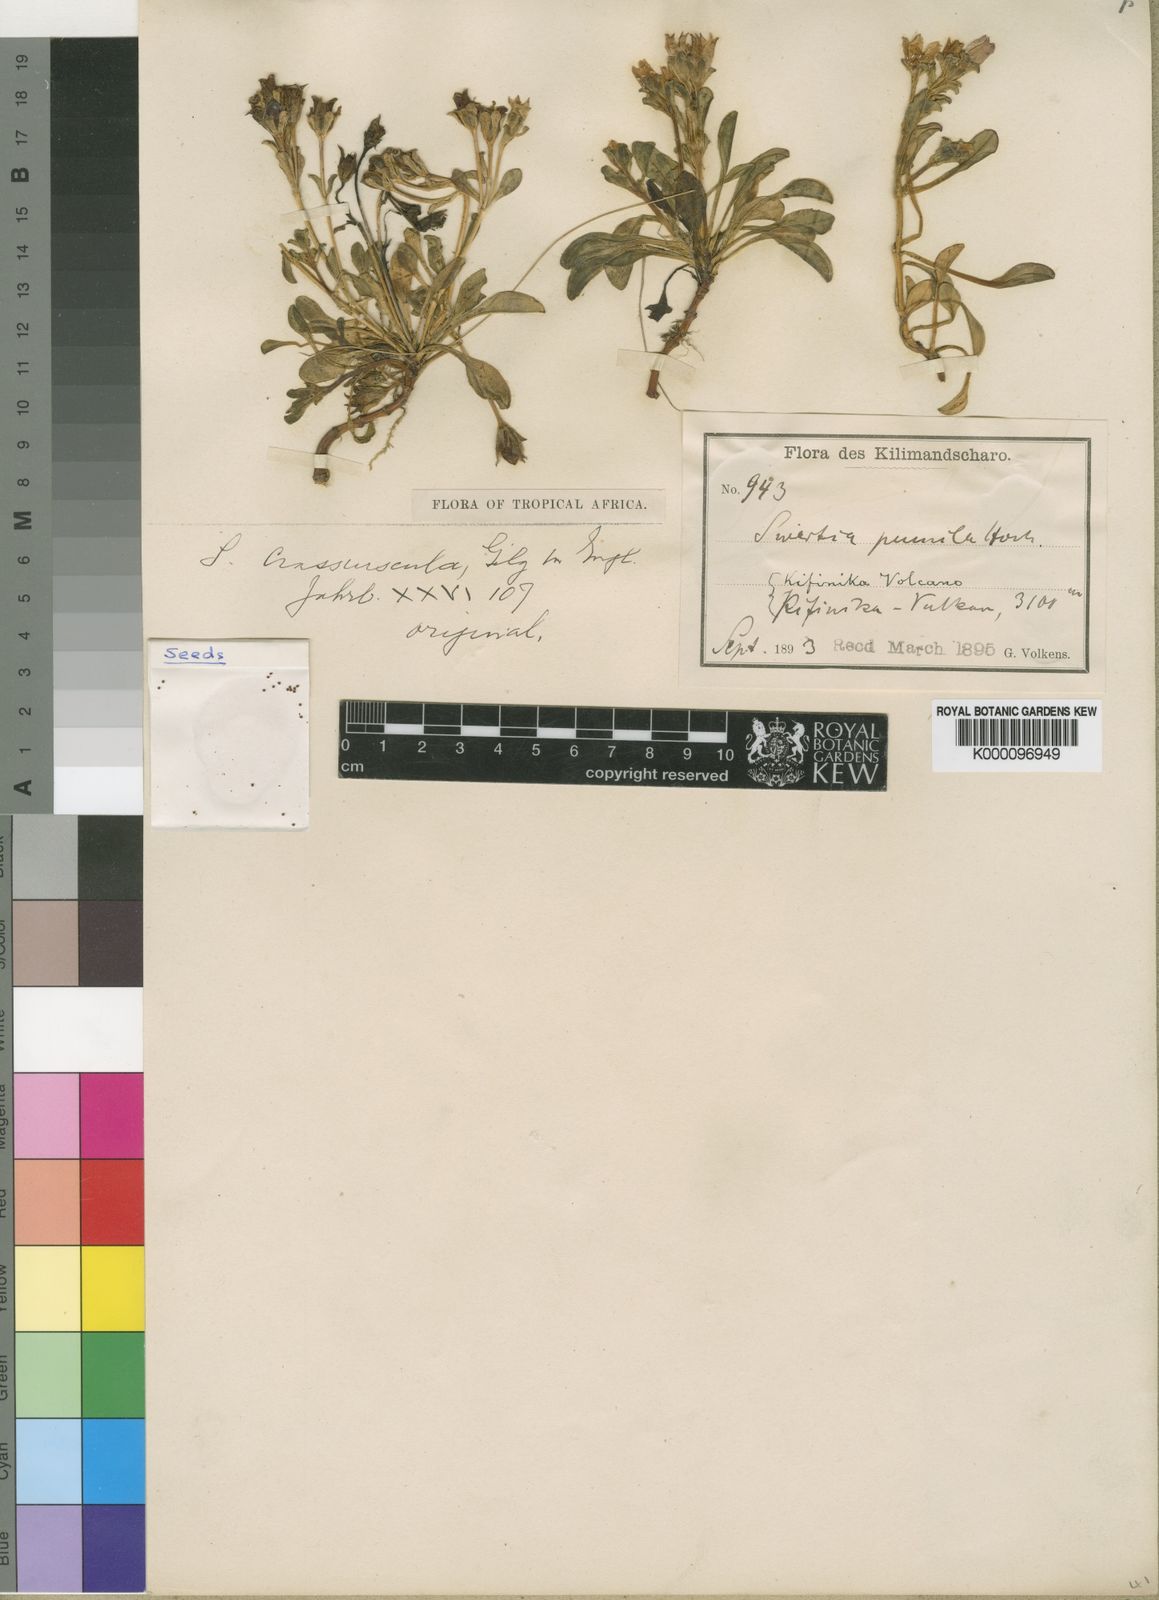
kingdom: Plantae
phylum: Tracheophyta
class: Magnoliopsida
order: Gentianales
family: Gentianaceae
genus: Swertia
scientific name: Swertia crassiuscula
